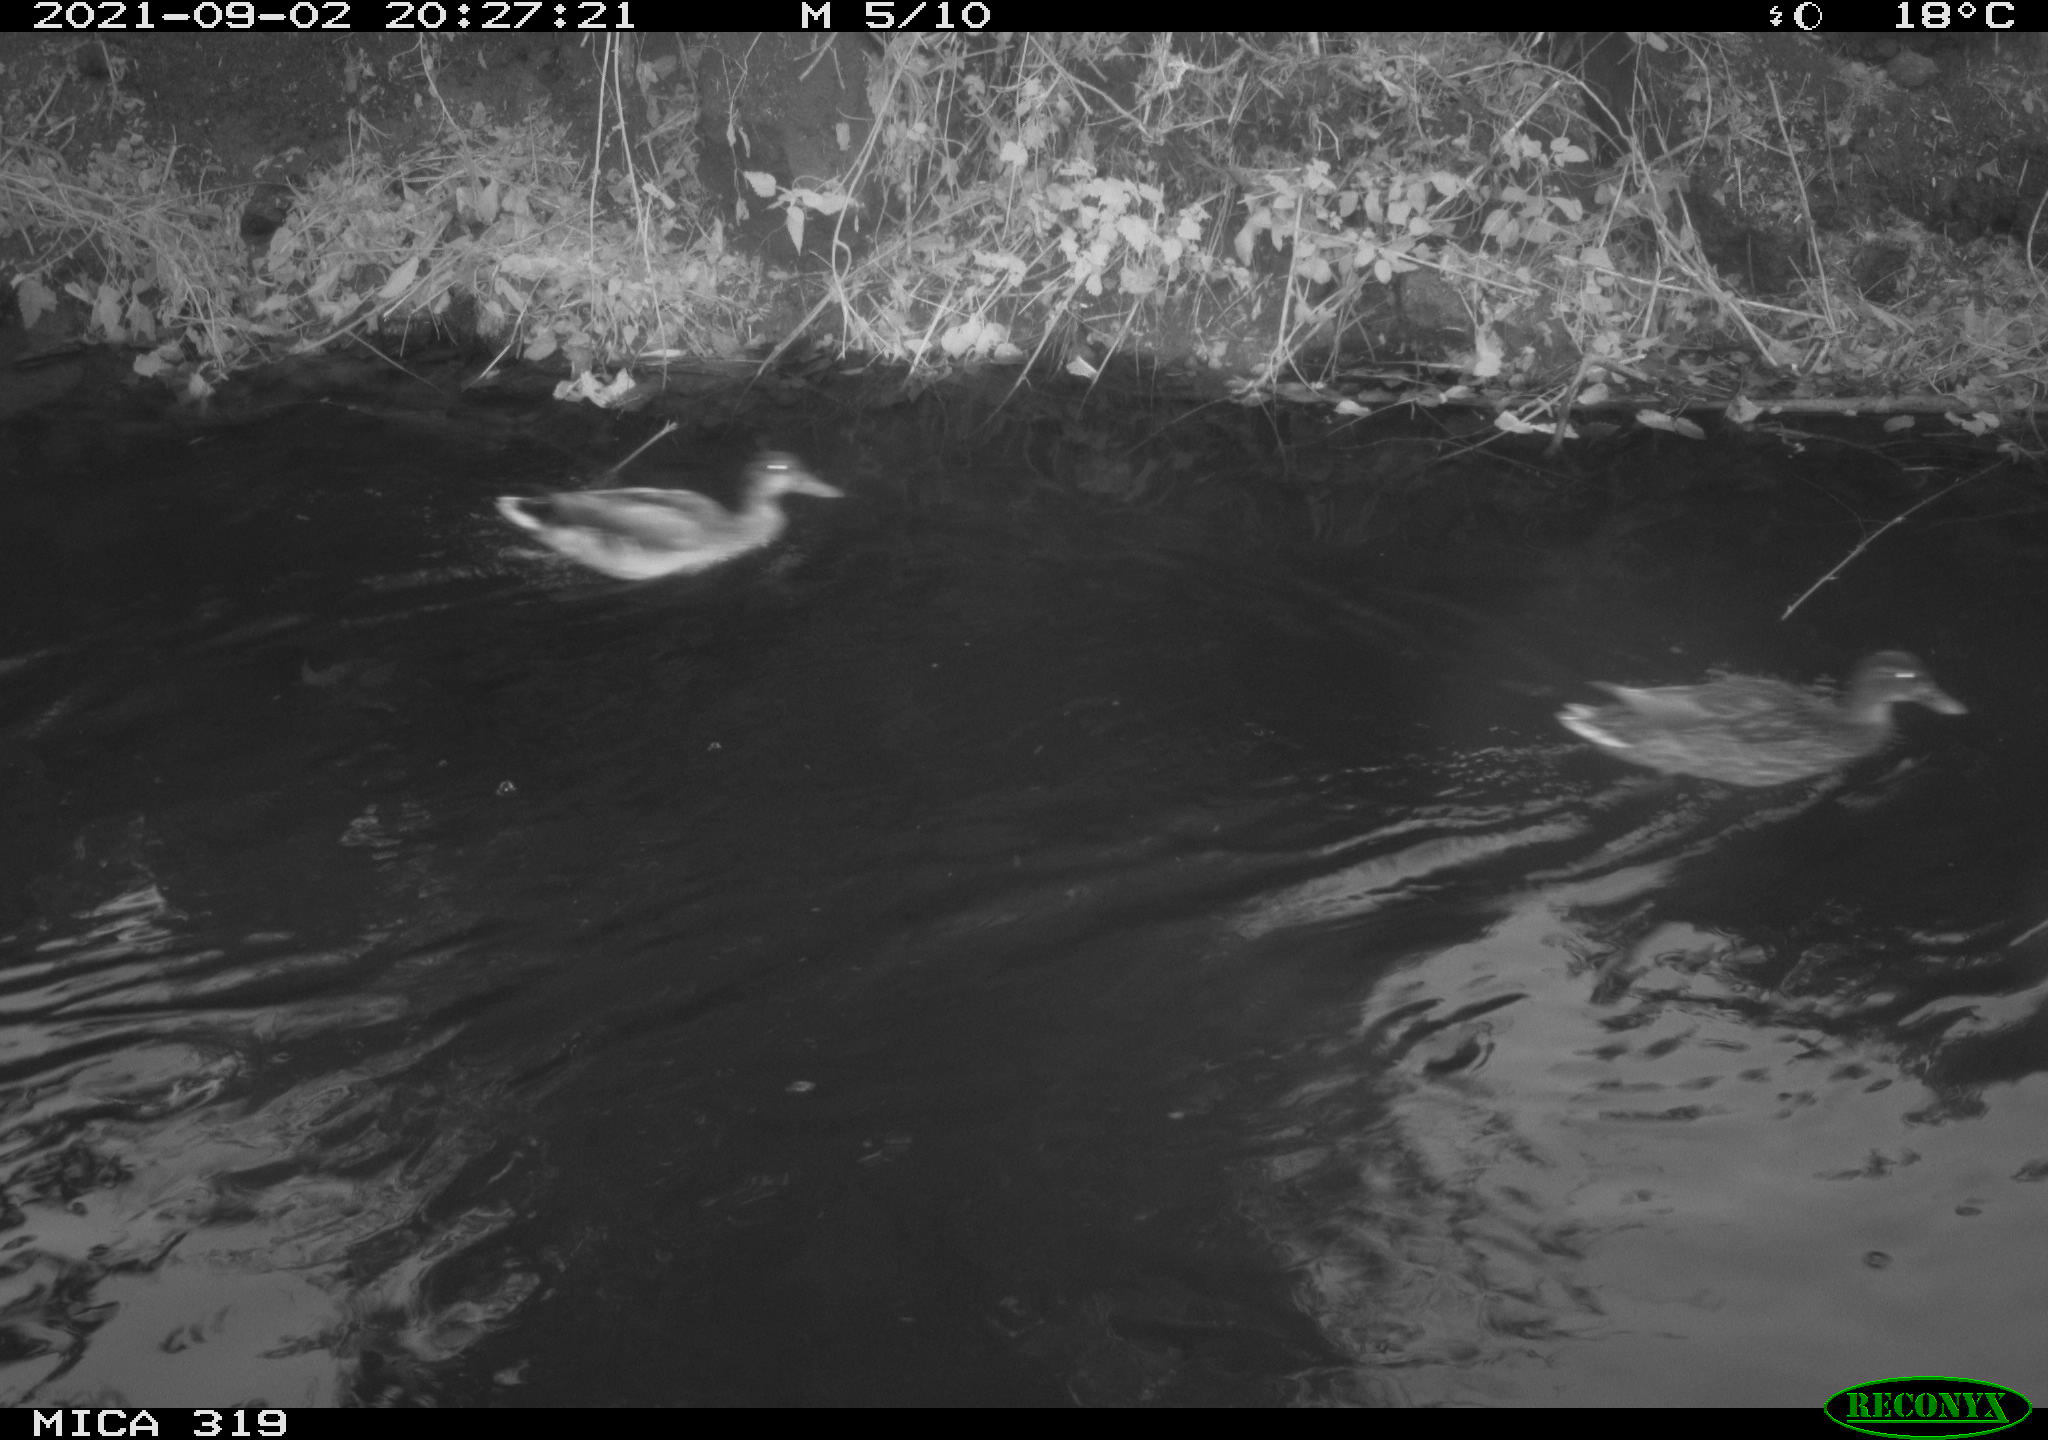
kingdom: Animalia
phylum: Chordata
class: Aves
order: Anseriformes
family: Anatidae
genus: Anas
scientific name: Anas platyrhynchos
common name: Mallard
